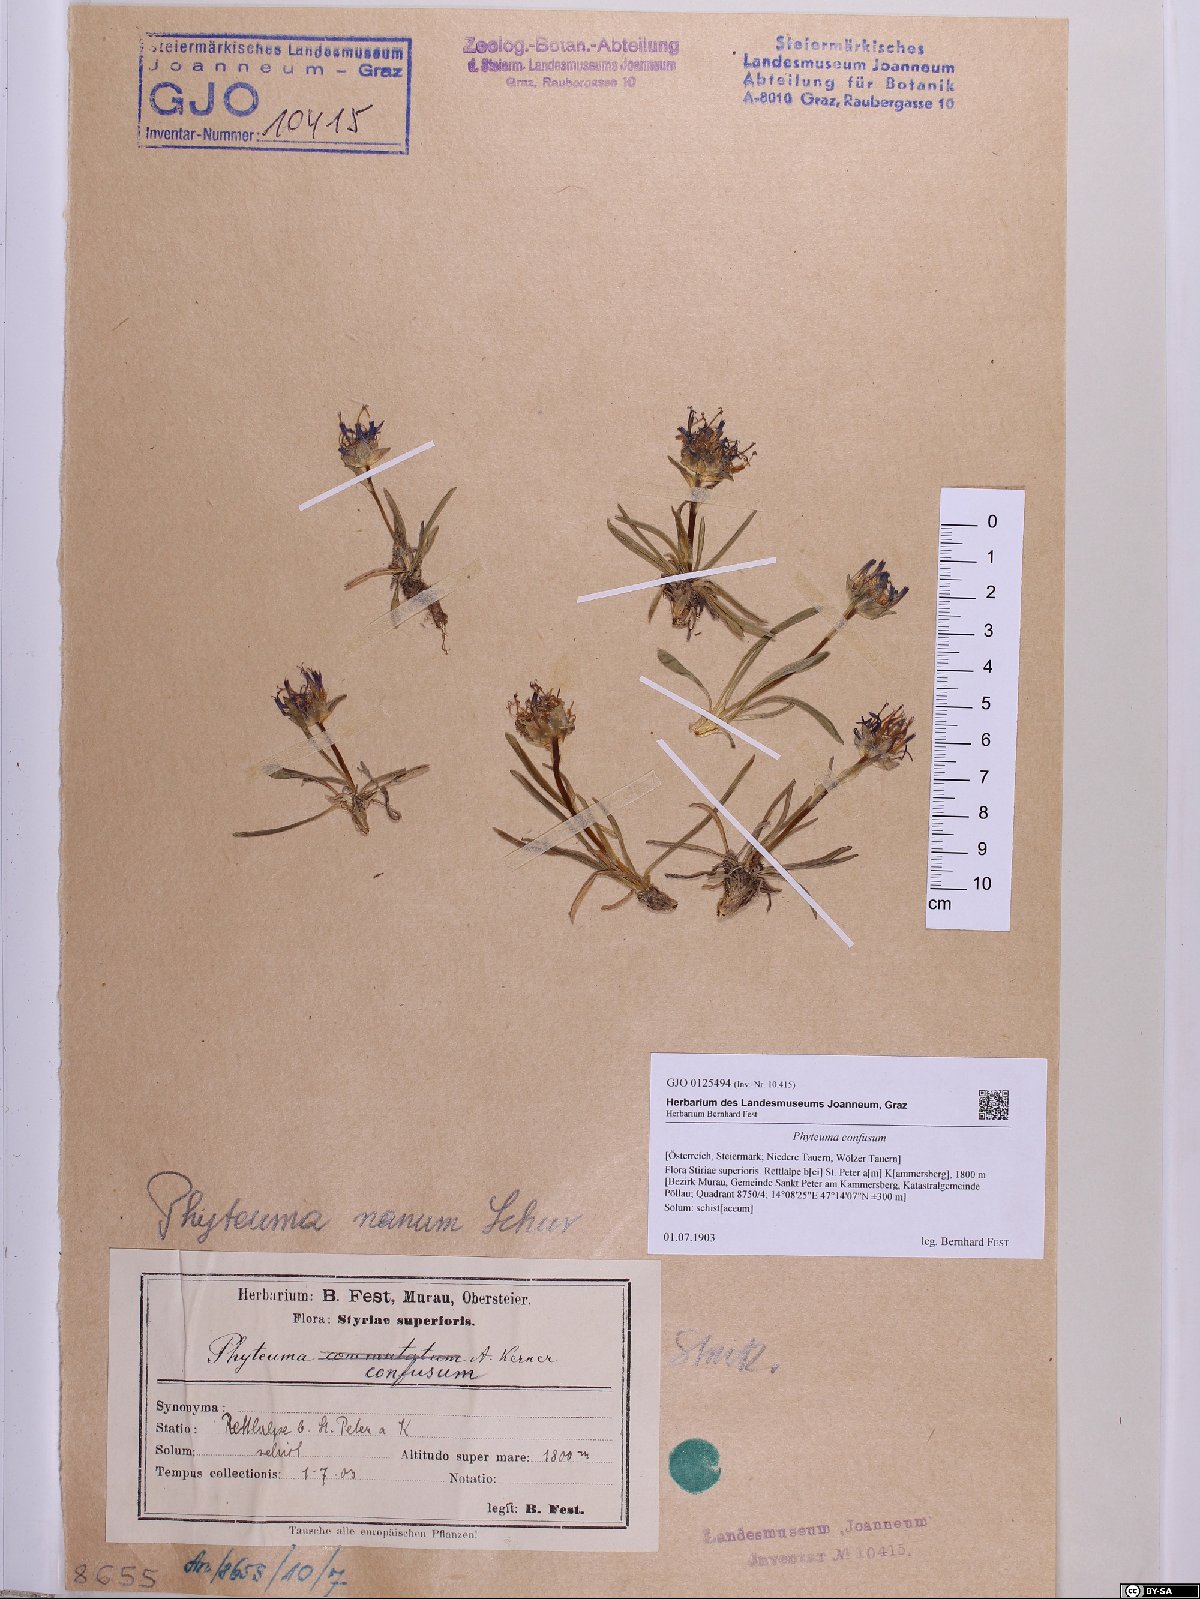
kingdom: Plantae
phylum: Tracheophyta
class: Magnoliopsida
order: Asterales
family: Campanulaceae
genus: Phyteuma
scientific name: Phyteuma confusum
